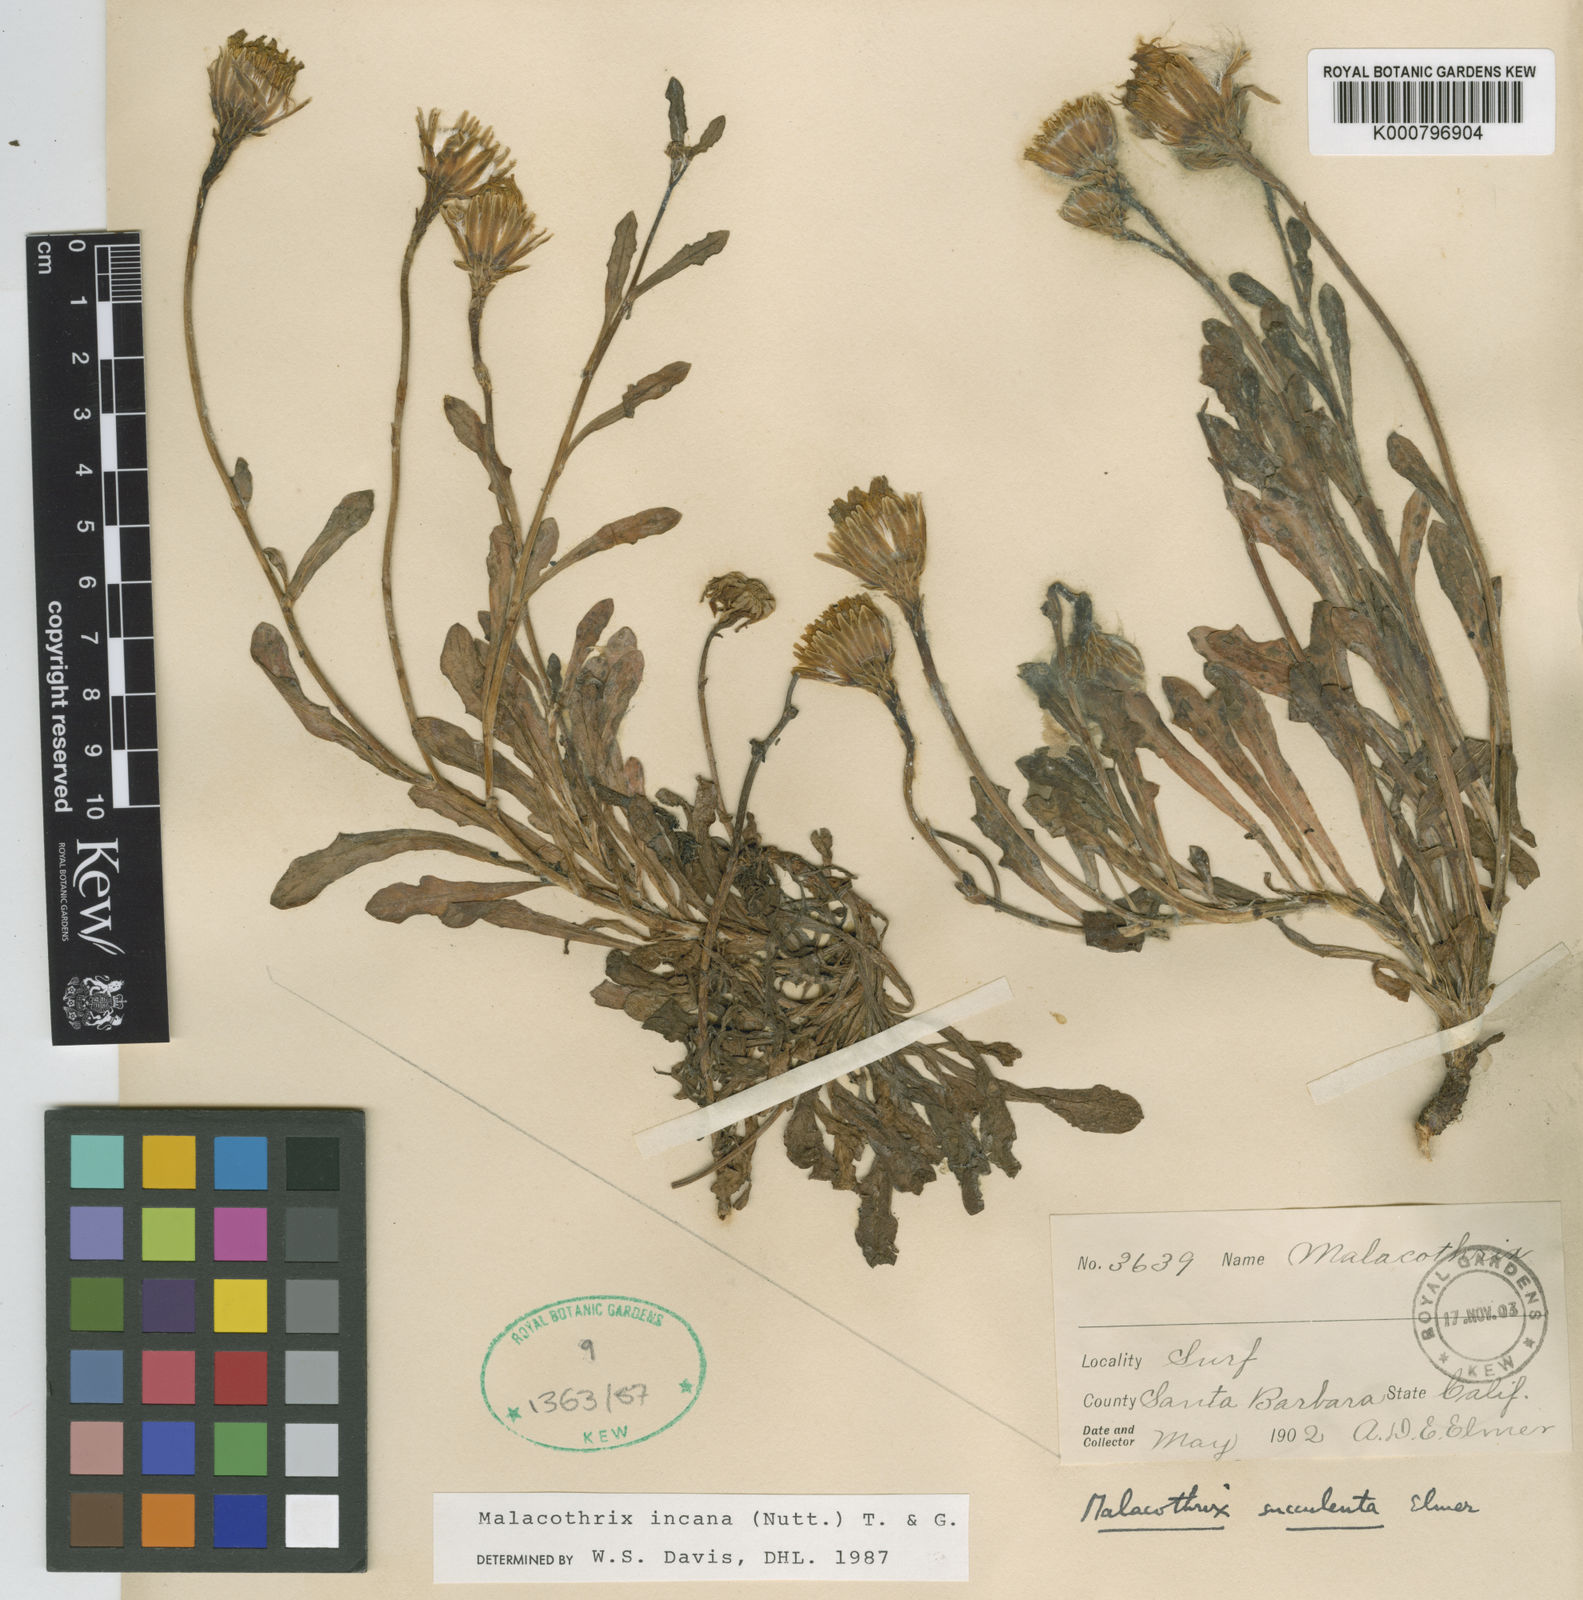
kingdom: Plantae
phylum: Tracheophyta
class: Magnoliopsida
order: Asterales
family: Asteraceae
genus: Malacothrix
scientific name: Malacothrix incana
